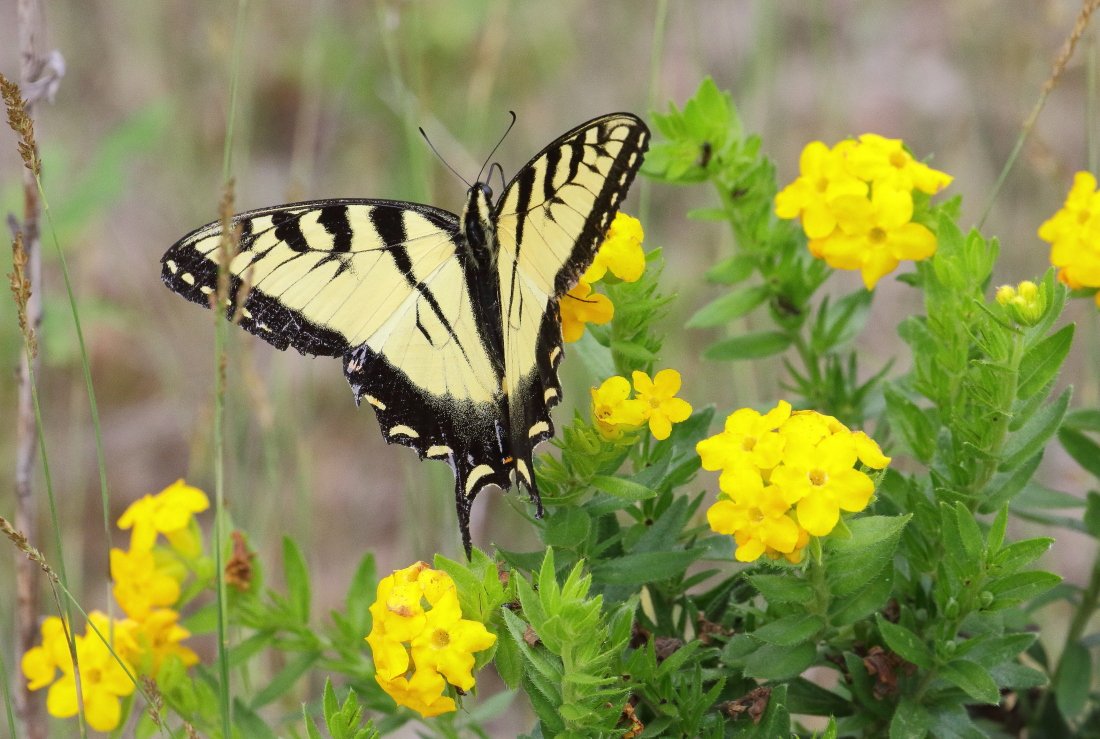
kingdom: Animalia
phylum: Arthropoda
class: Insecta
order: Lepidoptera
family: Papilionidae
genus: Pterourus
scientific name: Pterourus glaucus
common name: Eastern Tiger Swallowtail
